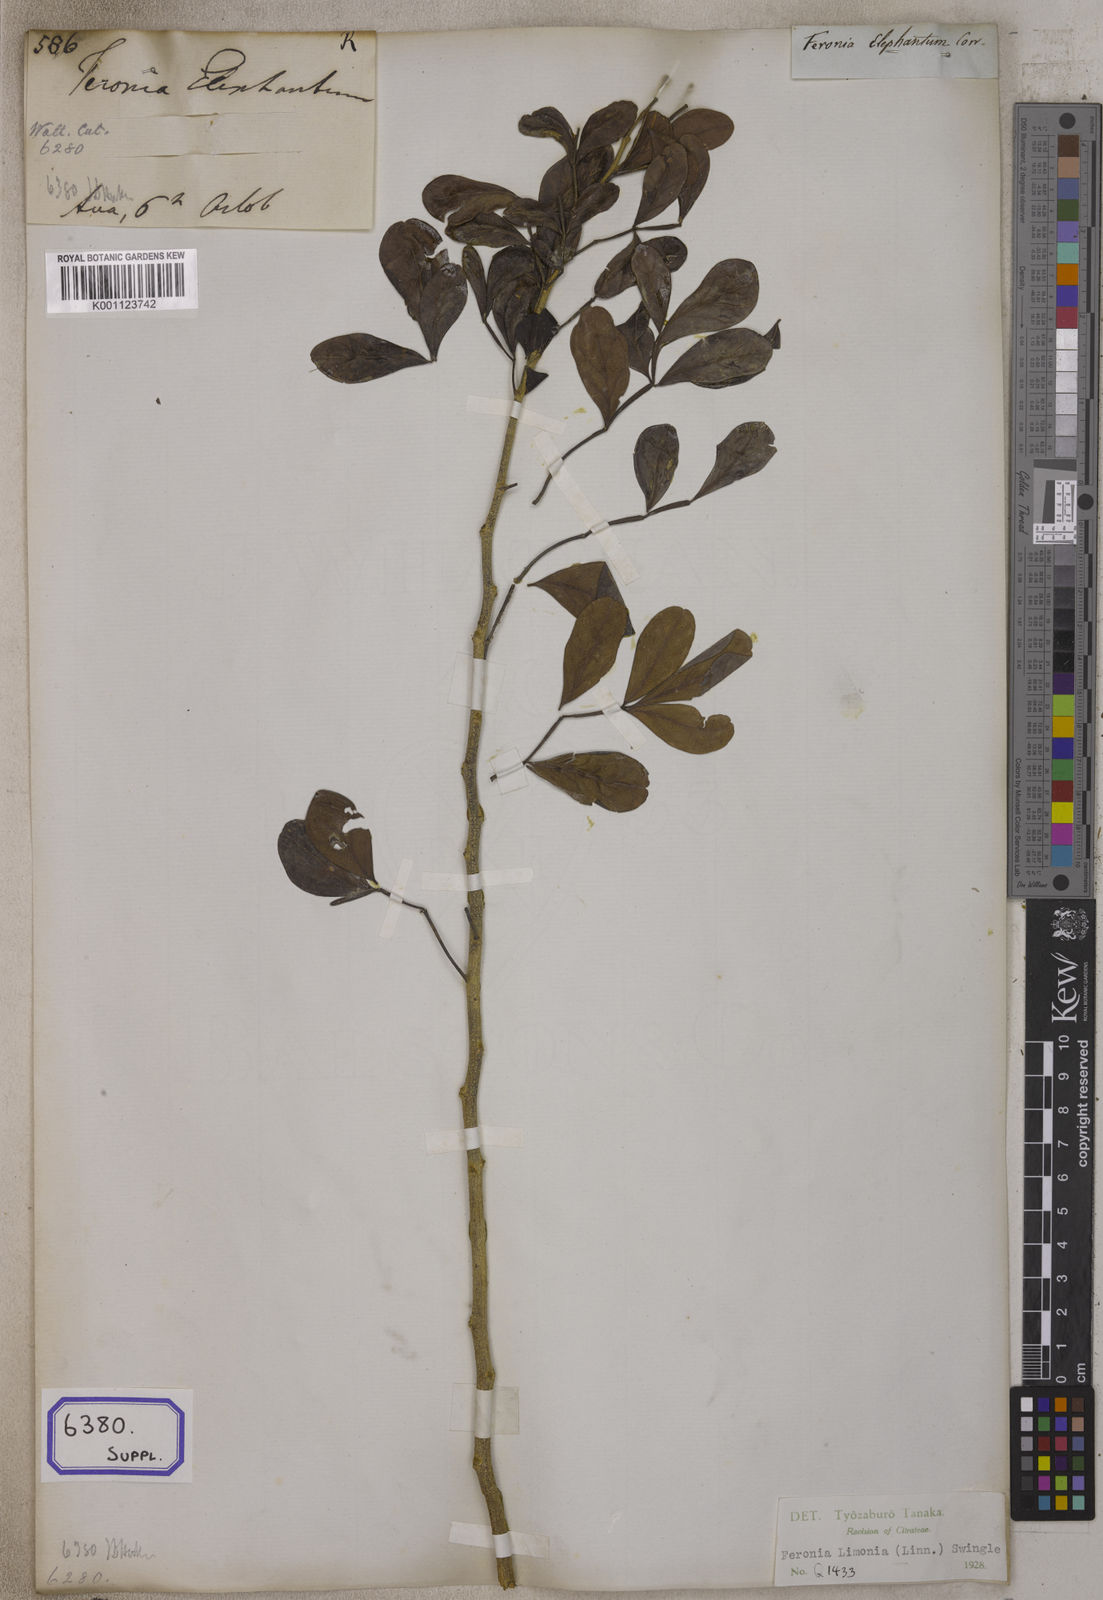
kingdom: Plantae
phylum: Tracheophyta
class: Magnoliopsida
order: Sapindales
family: Rutaceae
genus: Limonia
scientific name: Limonia acidissima
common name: Elephant apple
